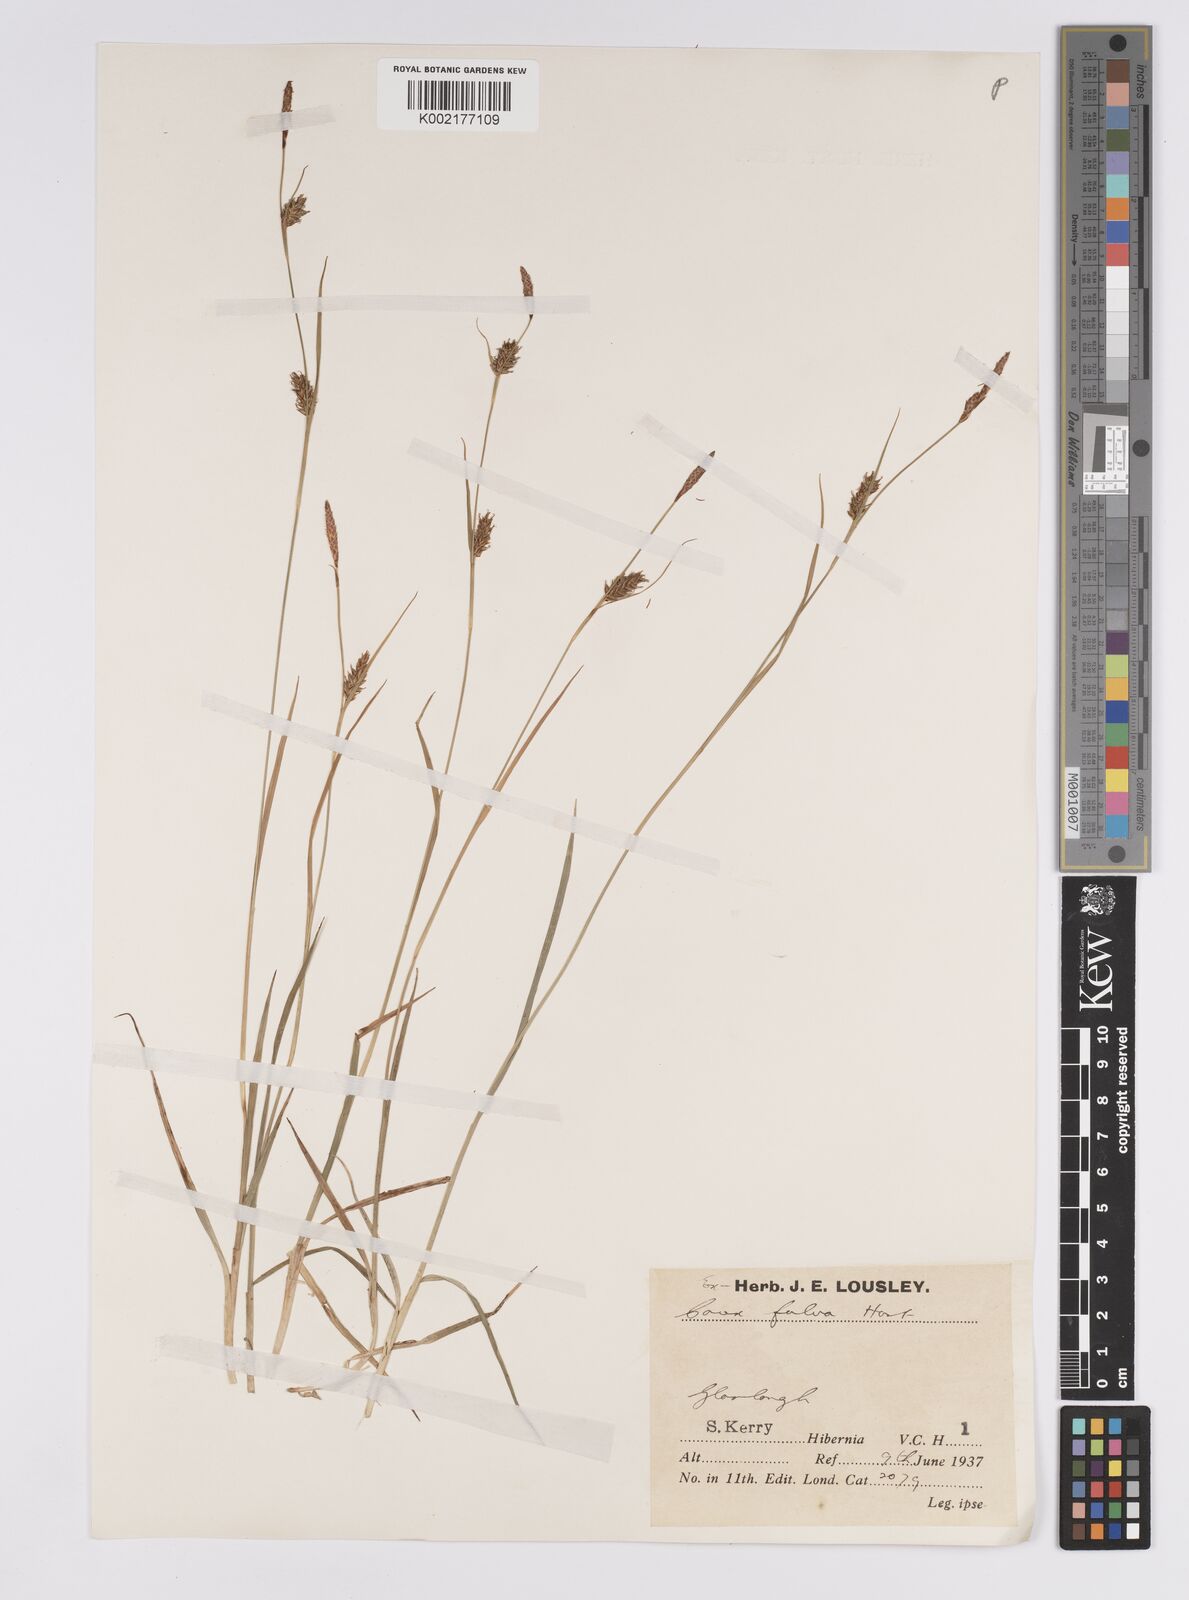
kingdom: Plantae
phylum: Tracheophyta
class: Liliopsida
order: Poales
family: Cyperaceae
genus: Carex
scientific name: Carex hostiana
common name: Tawny sedge
